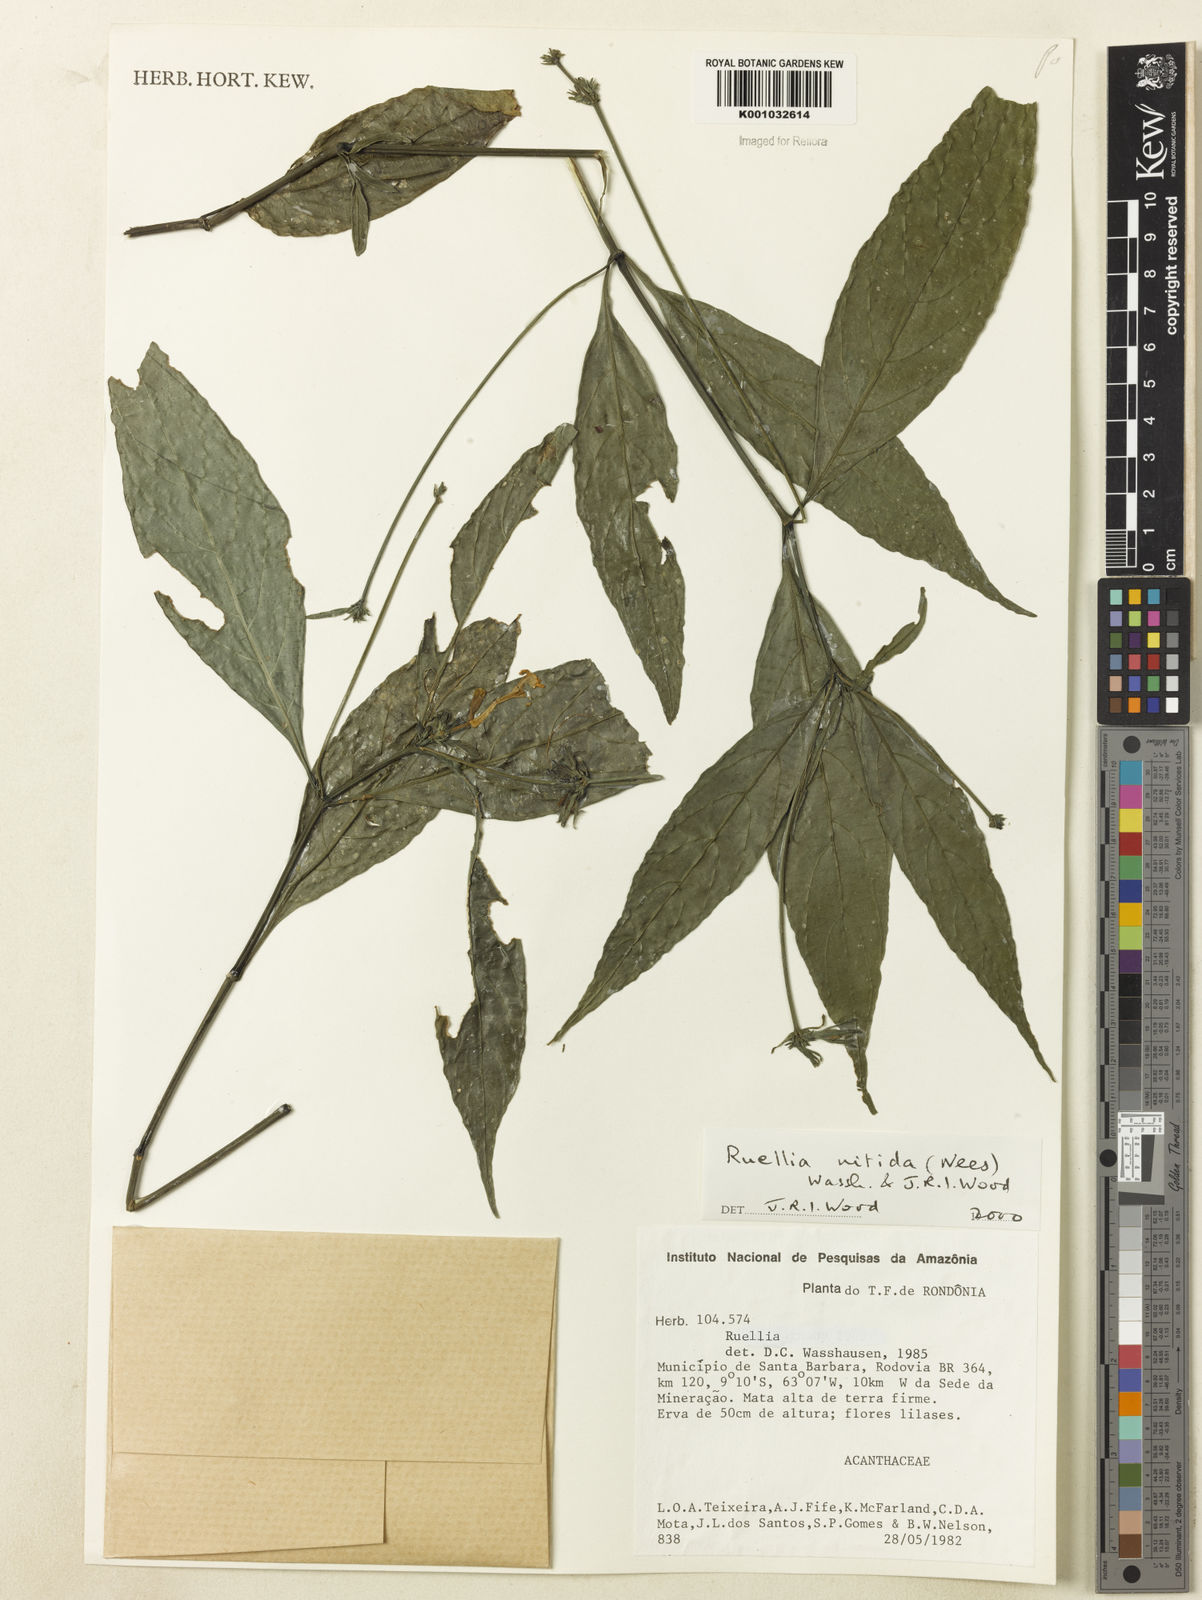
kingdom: Plantae
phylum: Tracheophyta
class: Magnoliopsida
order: Lamiales
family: Acanthaceae
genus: Ruellia
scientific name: Ruellia nitida
